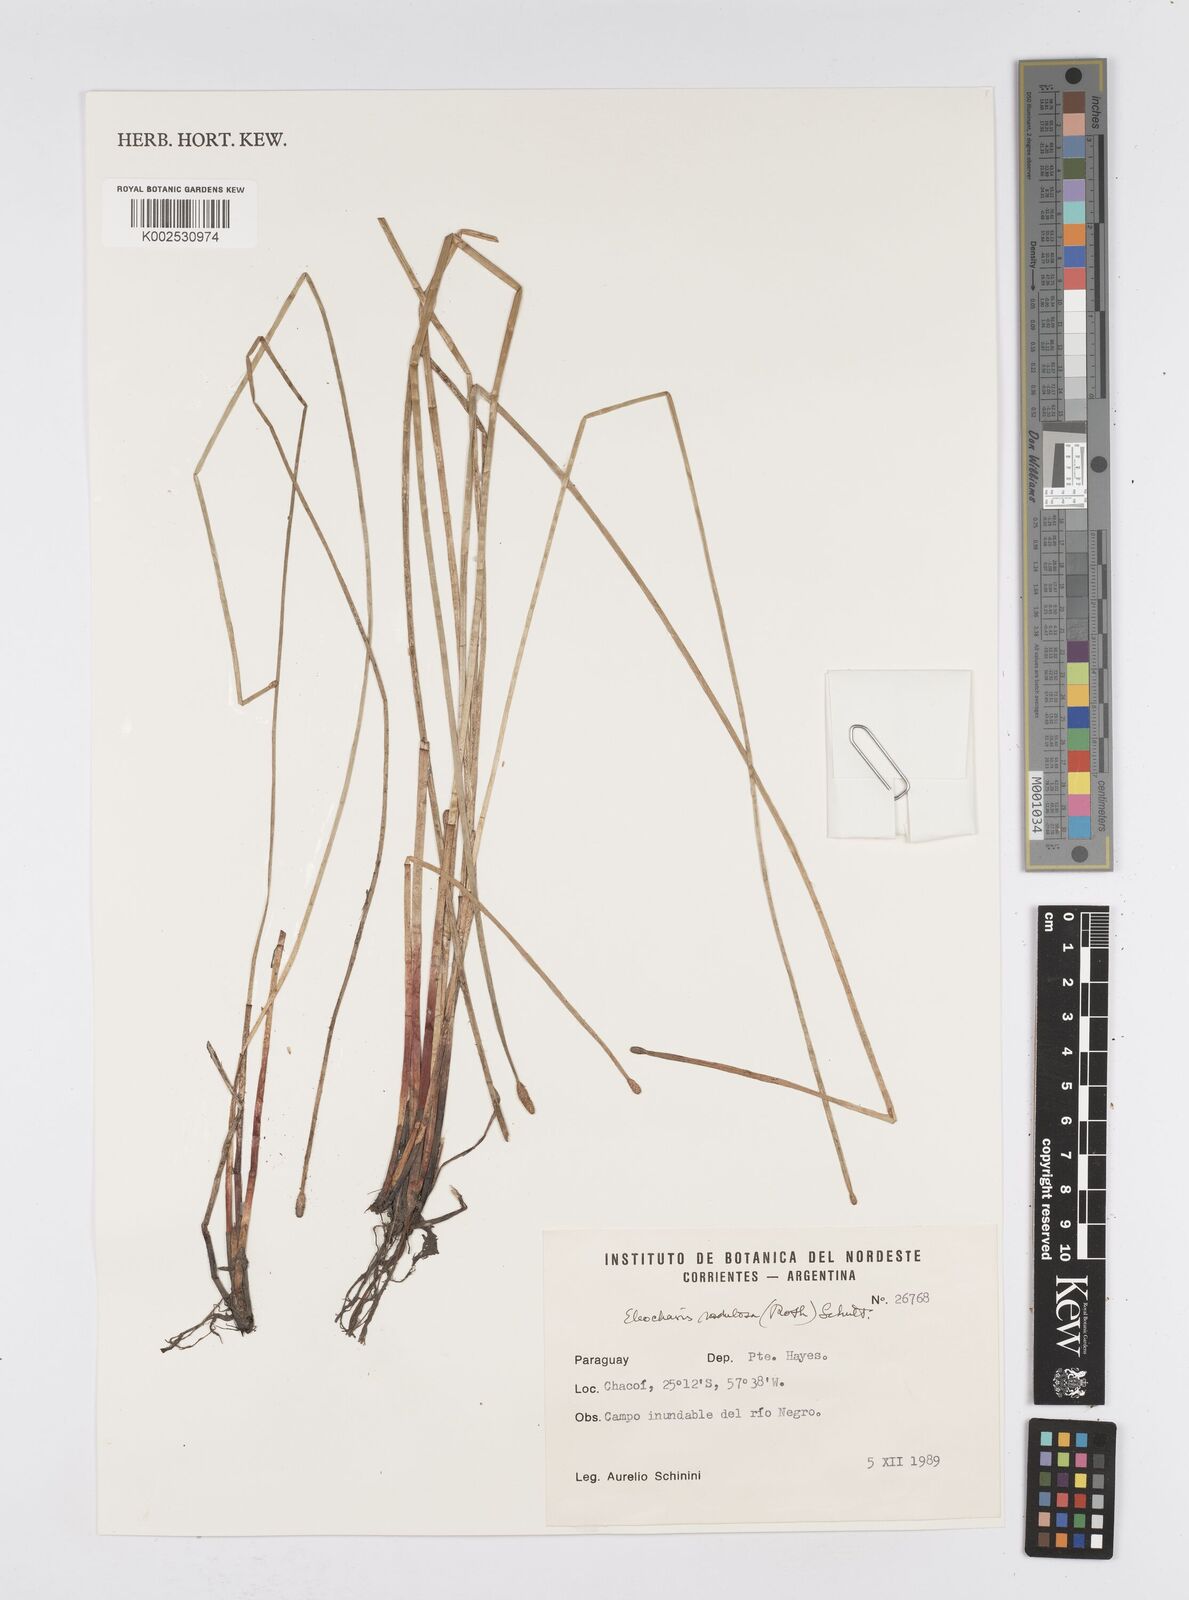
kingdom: Plantae
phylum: Tracheophyta
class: Liliopsida
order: Poales
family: Cyperaceae
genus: Eleocharis
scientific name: Eleocharis montana
